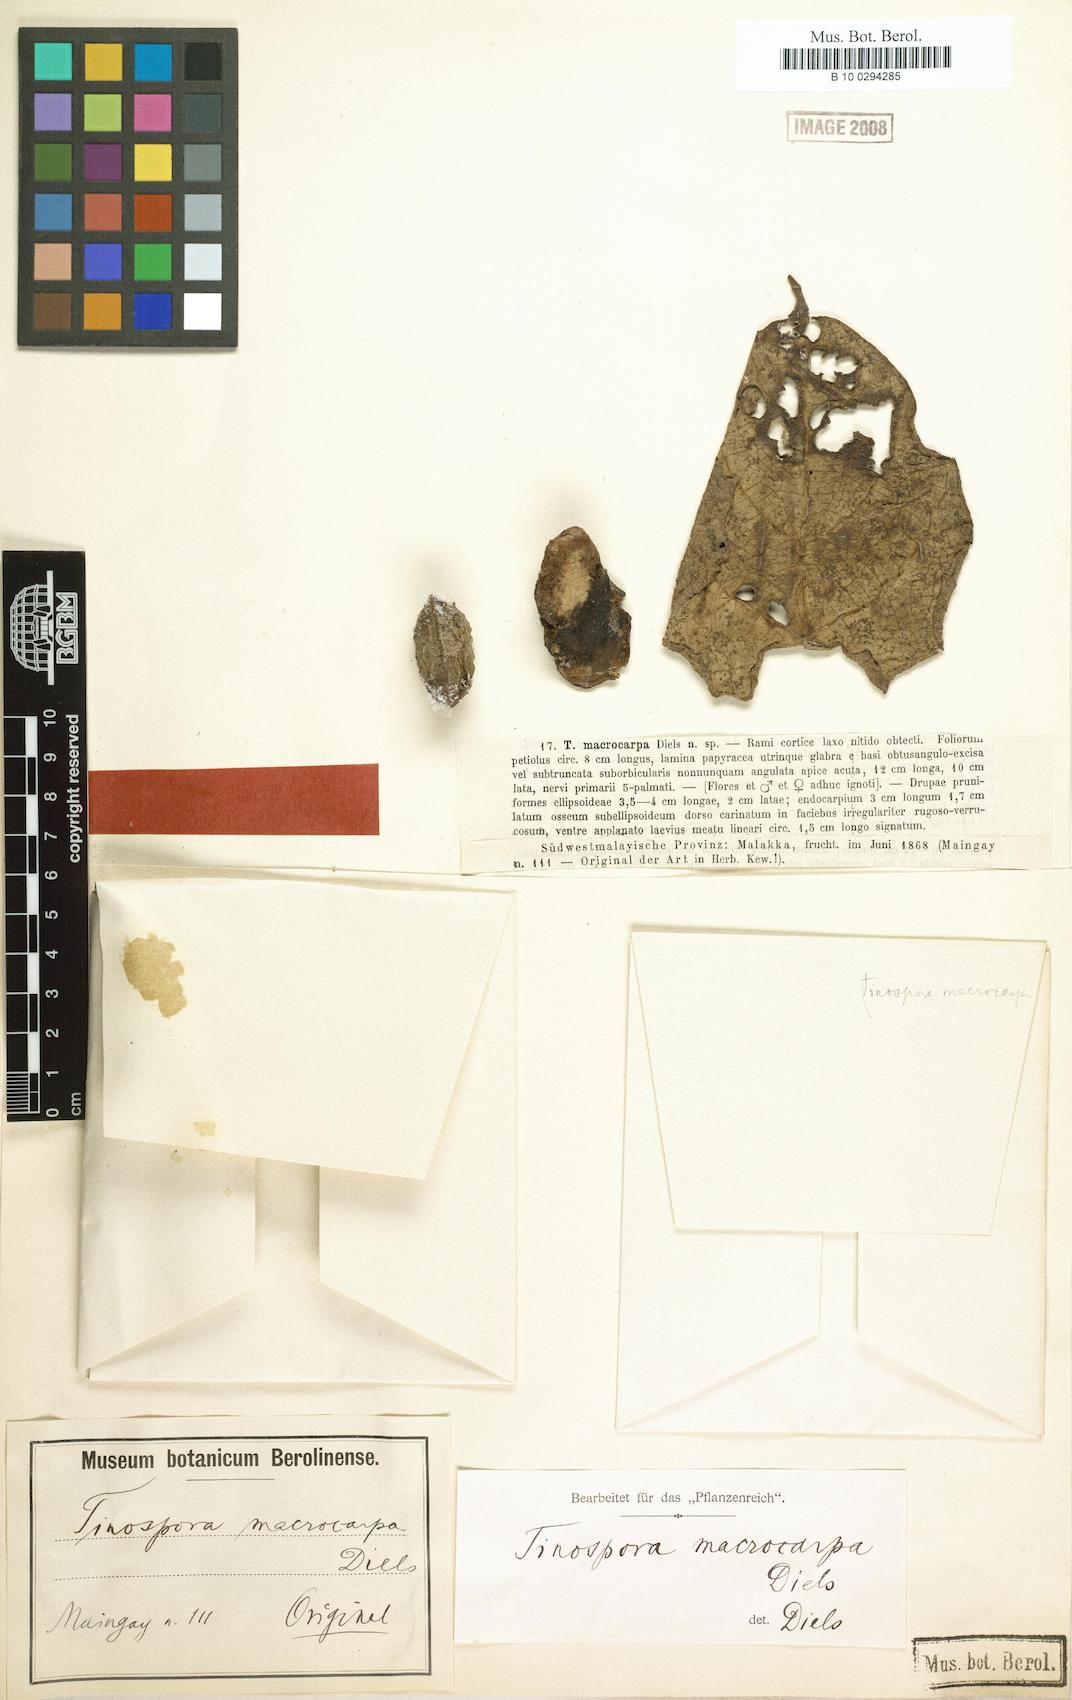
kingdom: Plantae
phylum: Tracheophyta
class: Magnoliopsida
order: Ranunculales
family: Menispermaceae
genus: Tinospora
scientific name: Tinospora macrocarpa
